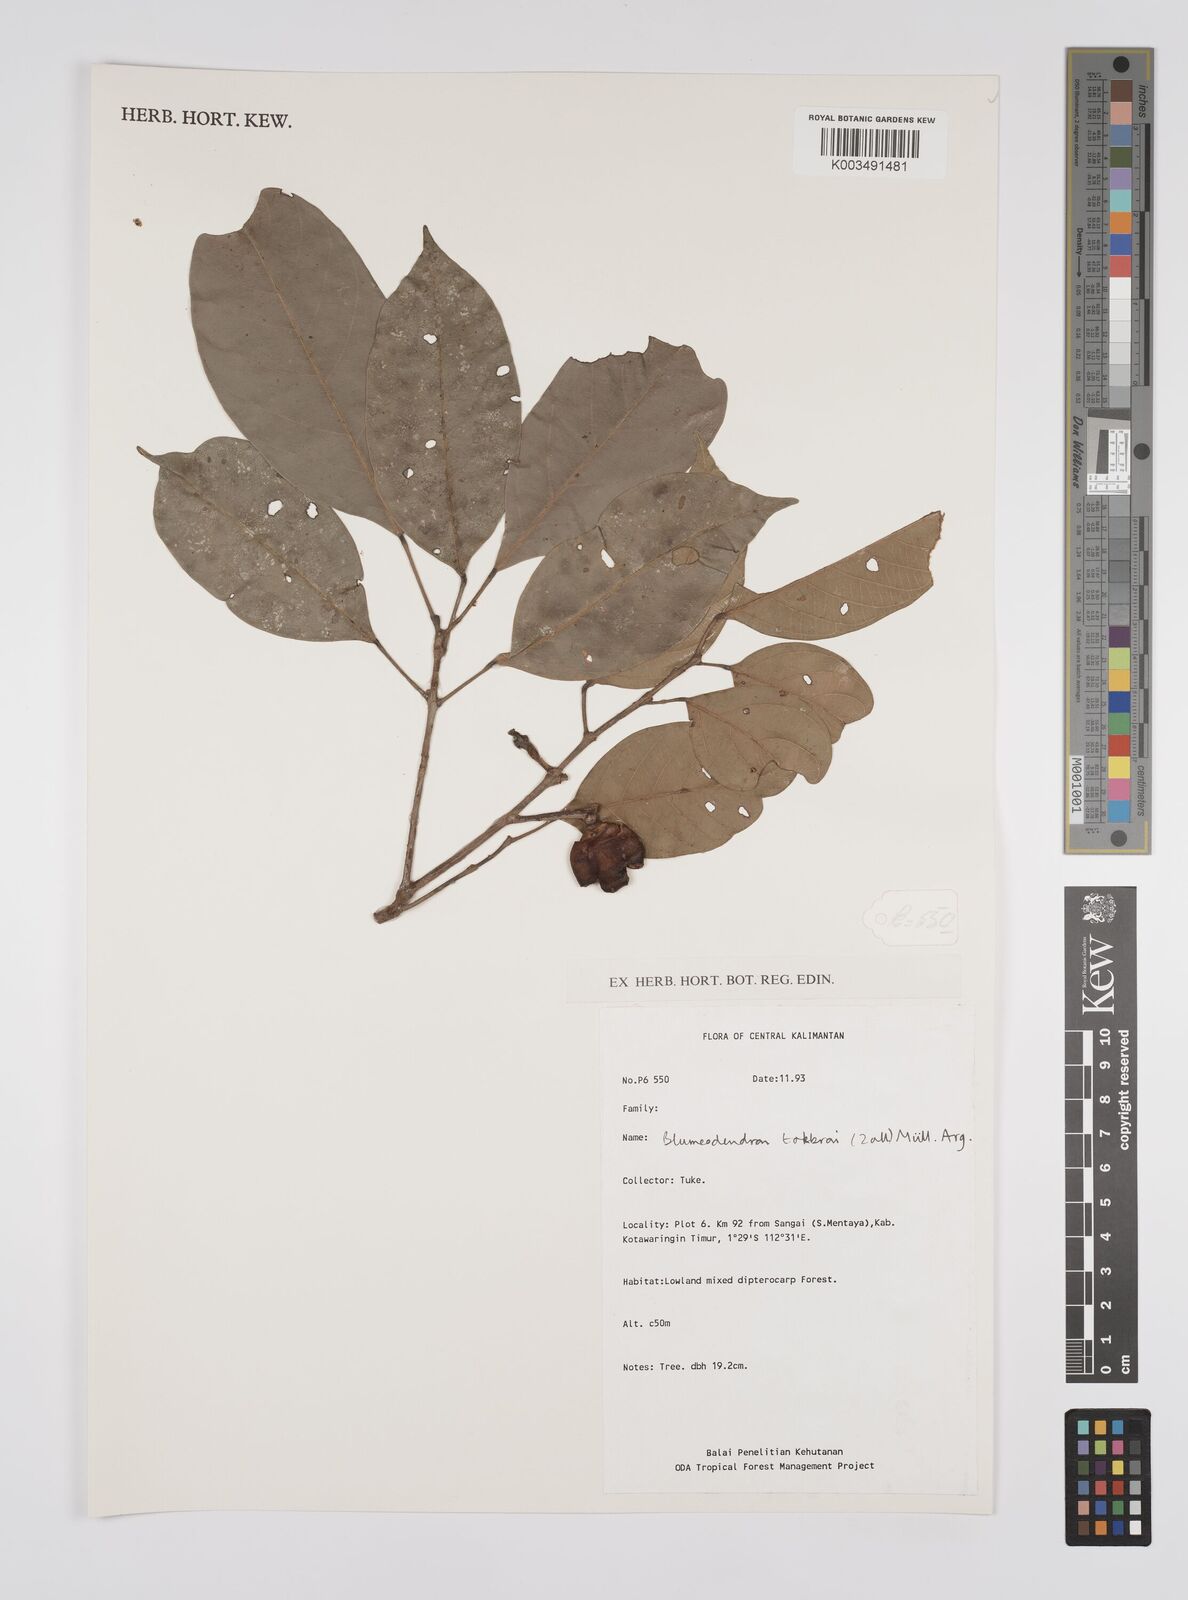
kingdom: Plantae
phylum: Tracheophyta
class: Magnoliopsida
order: Malpighiales
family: Euphorbiaceae
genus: Blumeodendron
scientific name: Blumeodendron tokbrai
